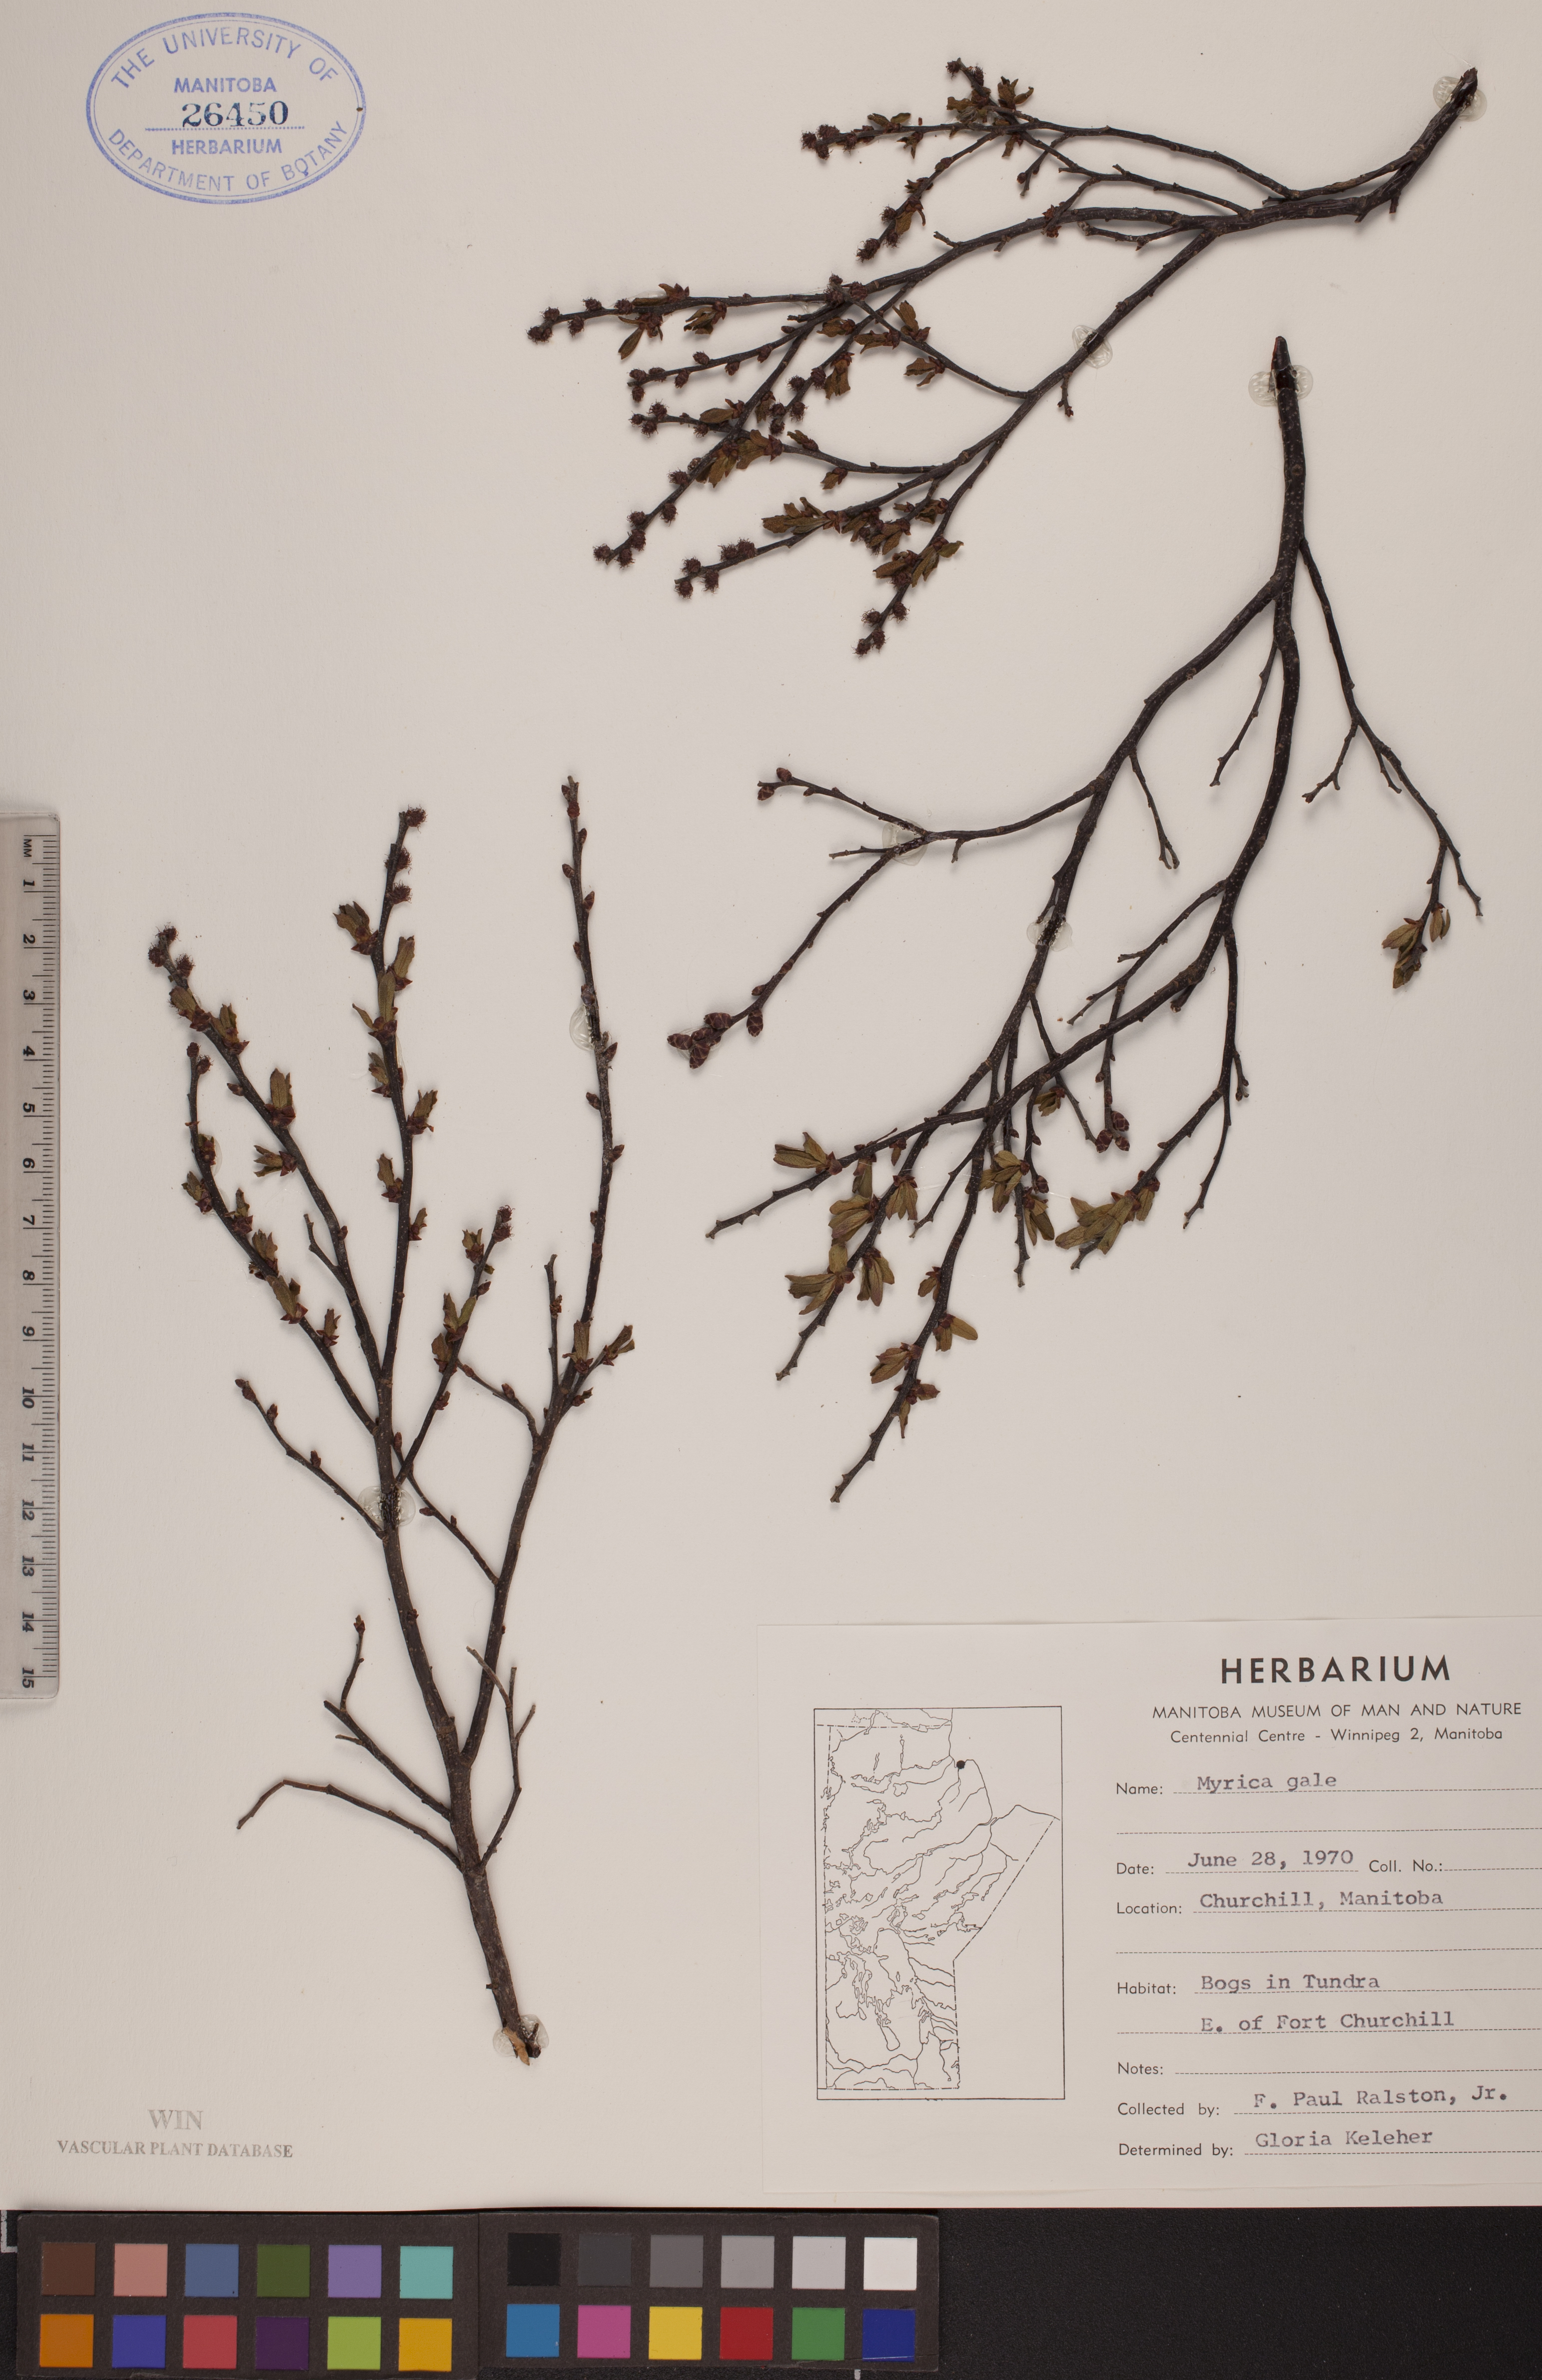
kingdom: Plantae
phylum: Tracheophyta
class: Magnoliopsida
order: Fagales
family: Myricaceae
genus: Myrica
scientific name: Myrica gale
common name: Sweet gale
